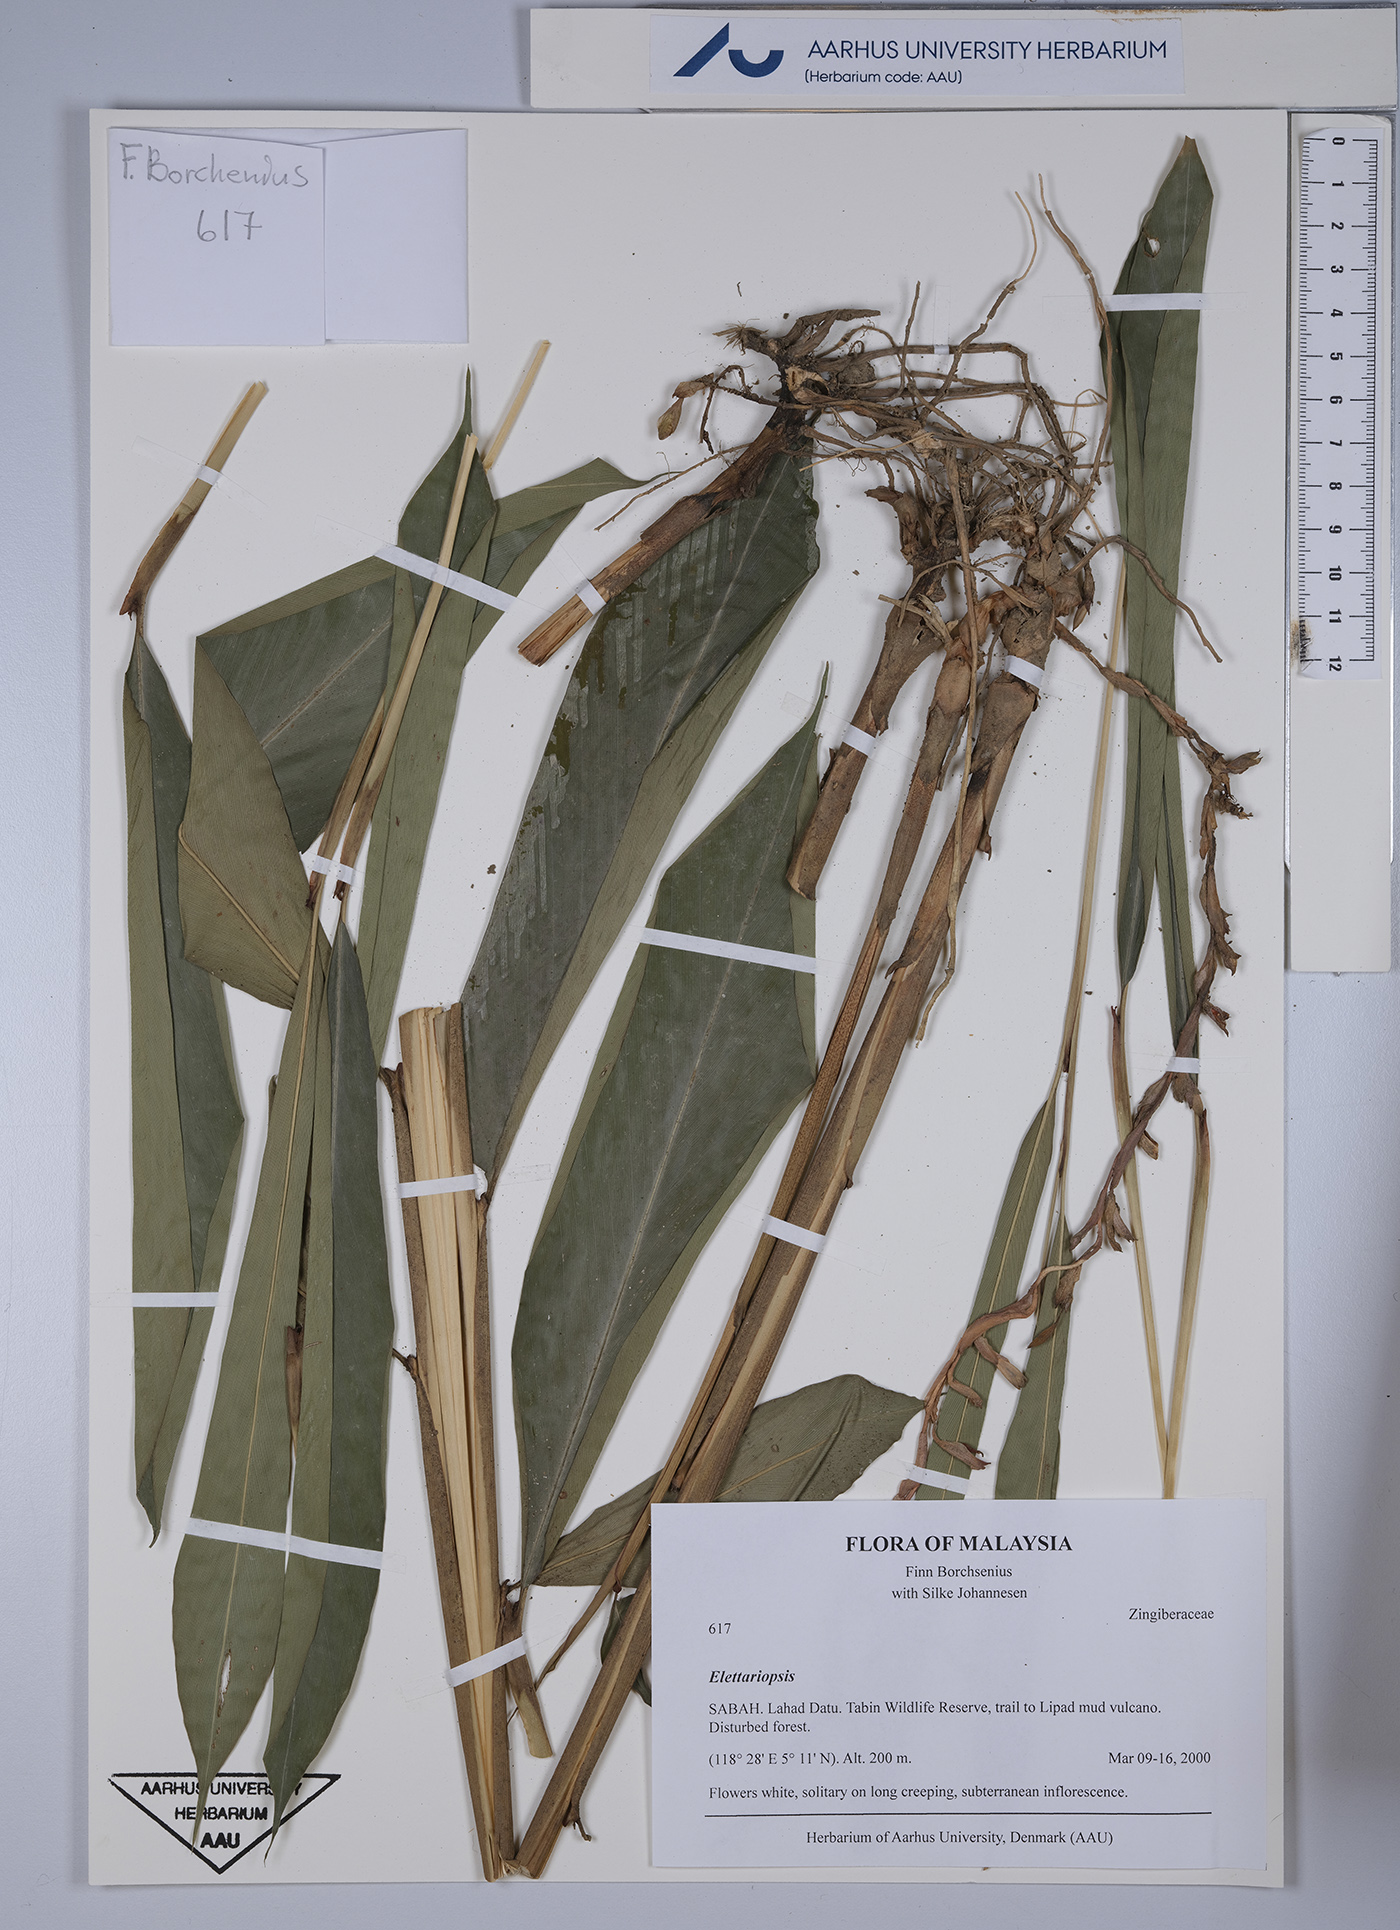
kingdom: Plantae
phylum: Tracheophyta
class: Liliopsida
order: Zingiberales
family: Zingiberaceae
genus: Amomum
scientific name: Amomum
